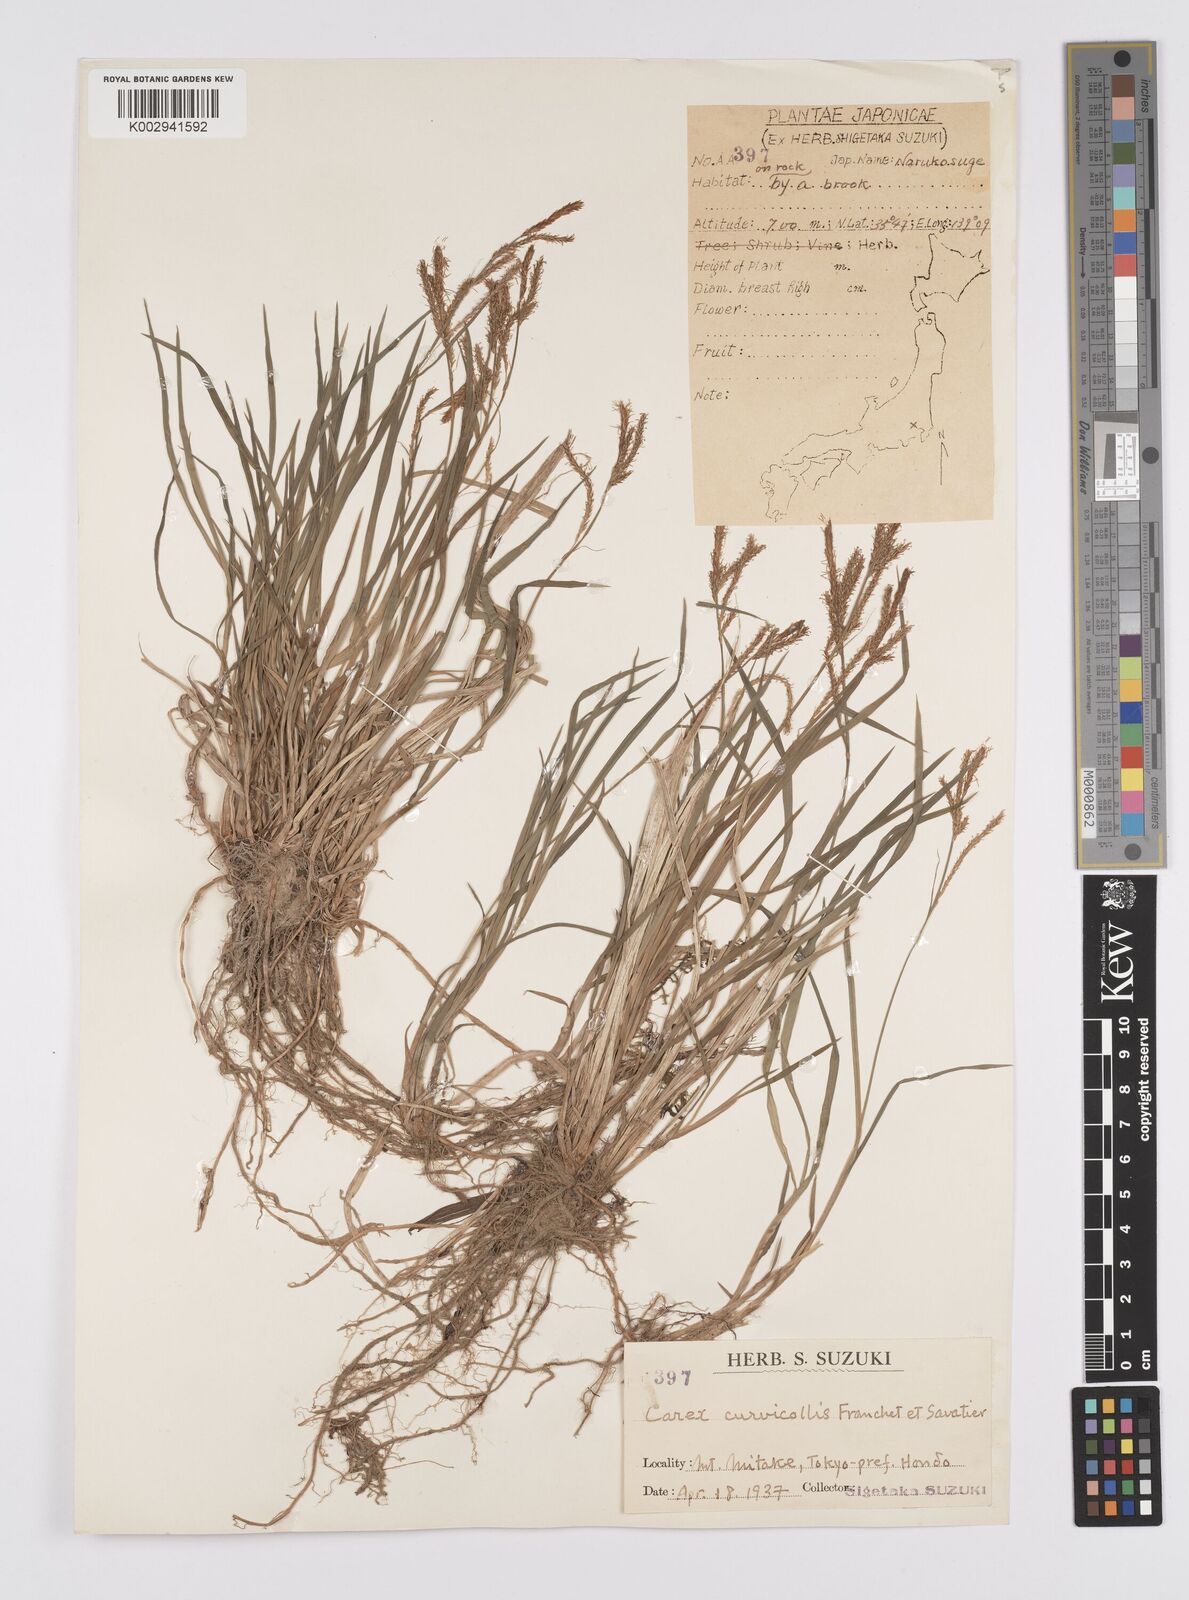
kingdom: Plantae
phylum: Tracheophyta
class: Liliopsida
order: Poales
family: Cyperaceae
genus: Carex
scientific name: Carex curvicollis
